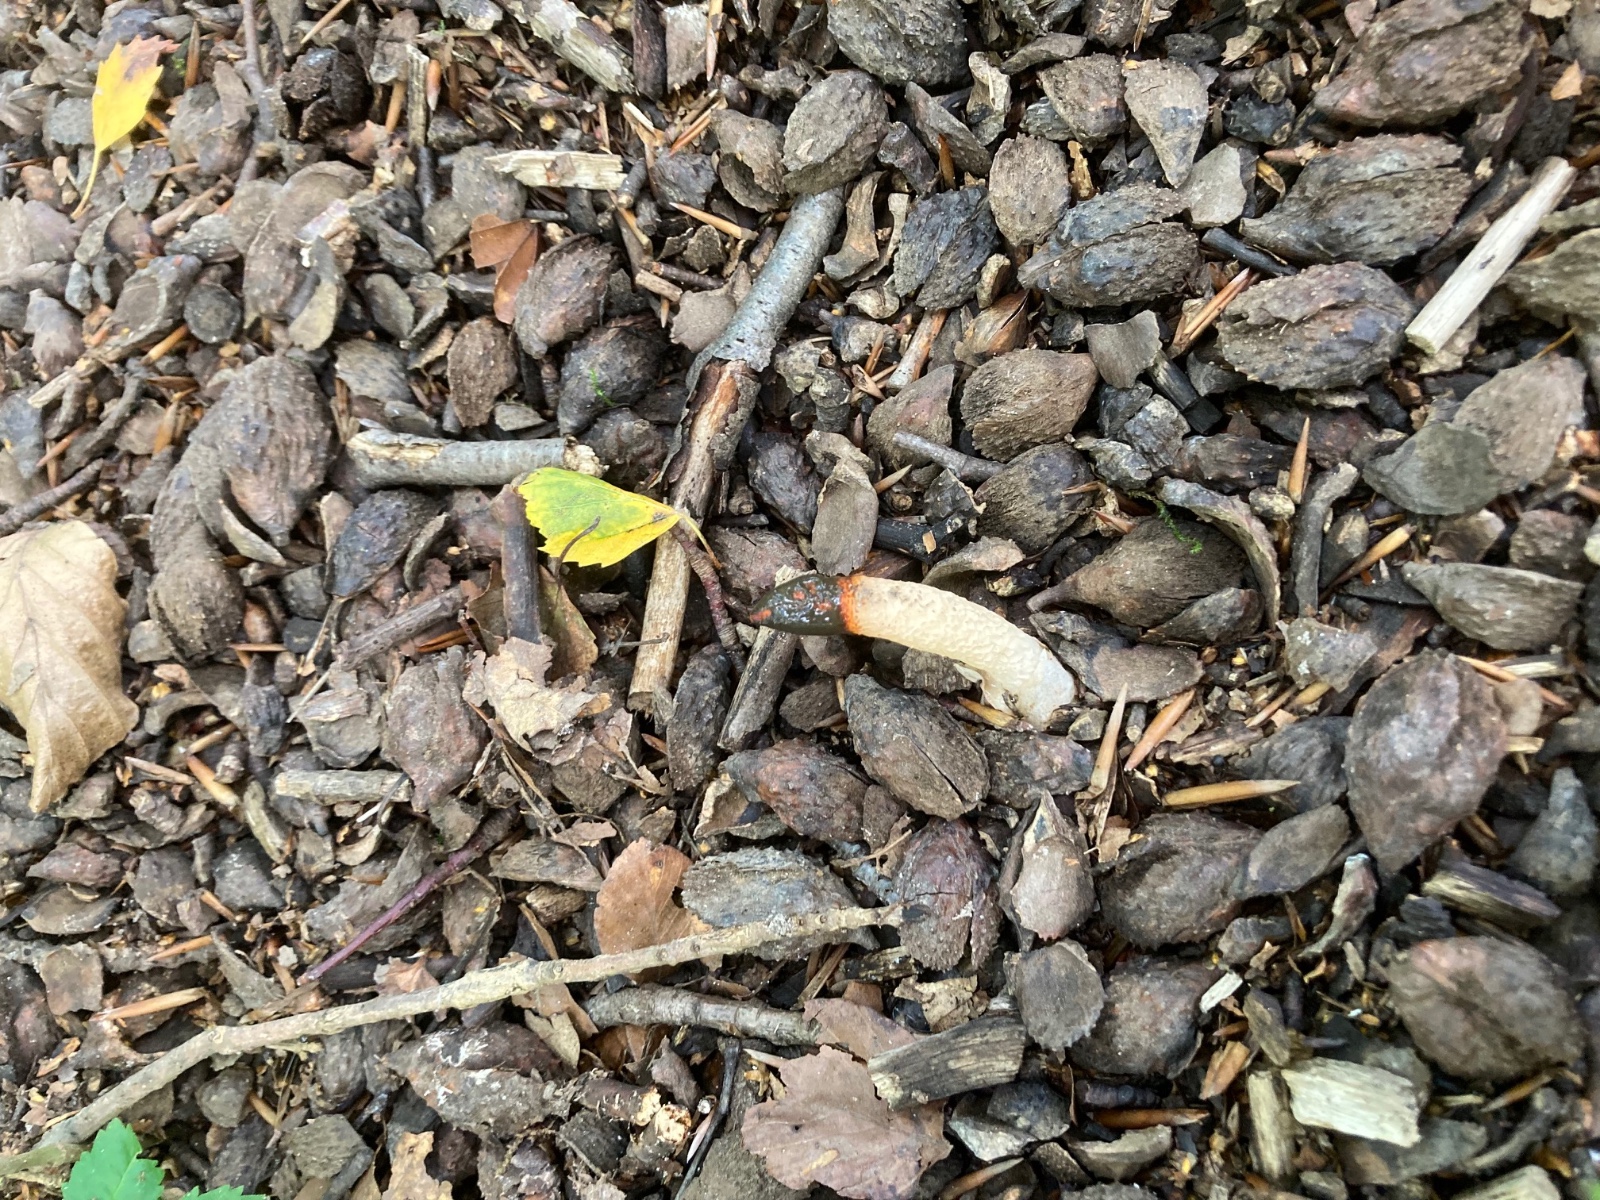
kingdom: Fungi
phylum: Basidiomycota
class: Agaricomycetes
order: Phallales
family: Phallaceae
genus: Mutinus
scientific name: Mutinus caninus
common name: hunde-stinksvamp
